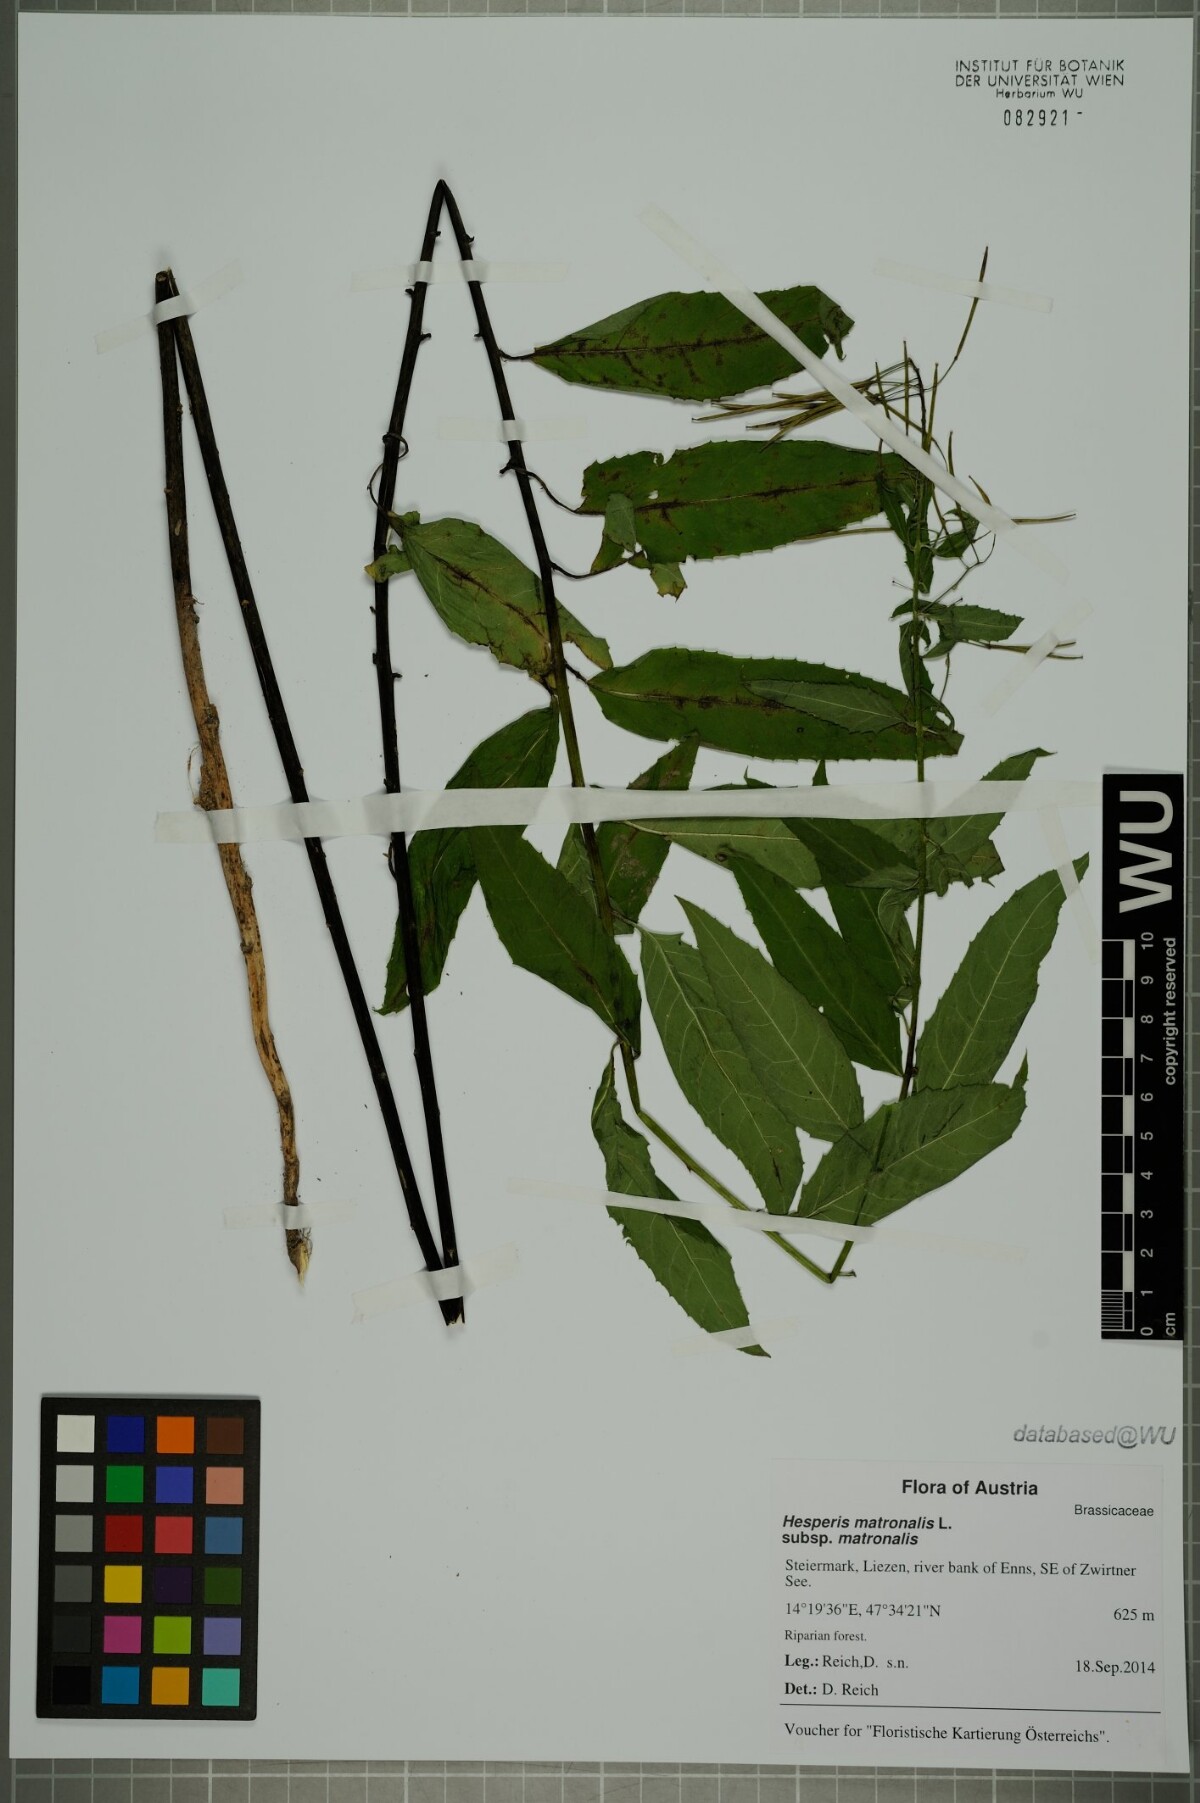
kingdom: Plantae
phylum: Tracheophyta
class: Magnoliopsida
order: Brassicales
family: Brassicaceae
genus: Hesperis
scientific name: Hesperis matronalis
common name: Dame's-violet
